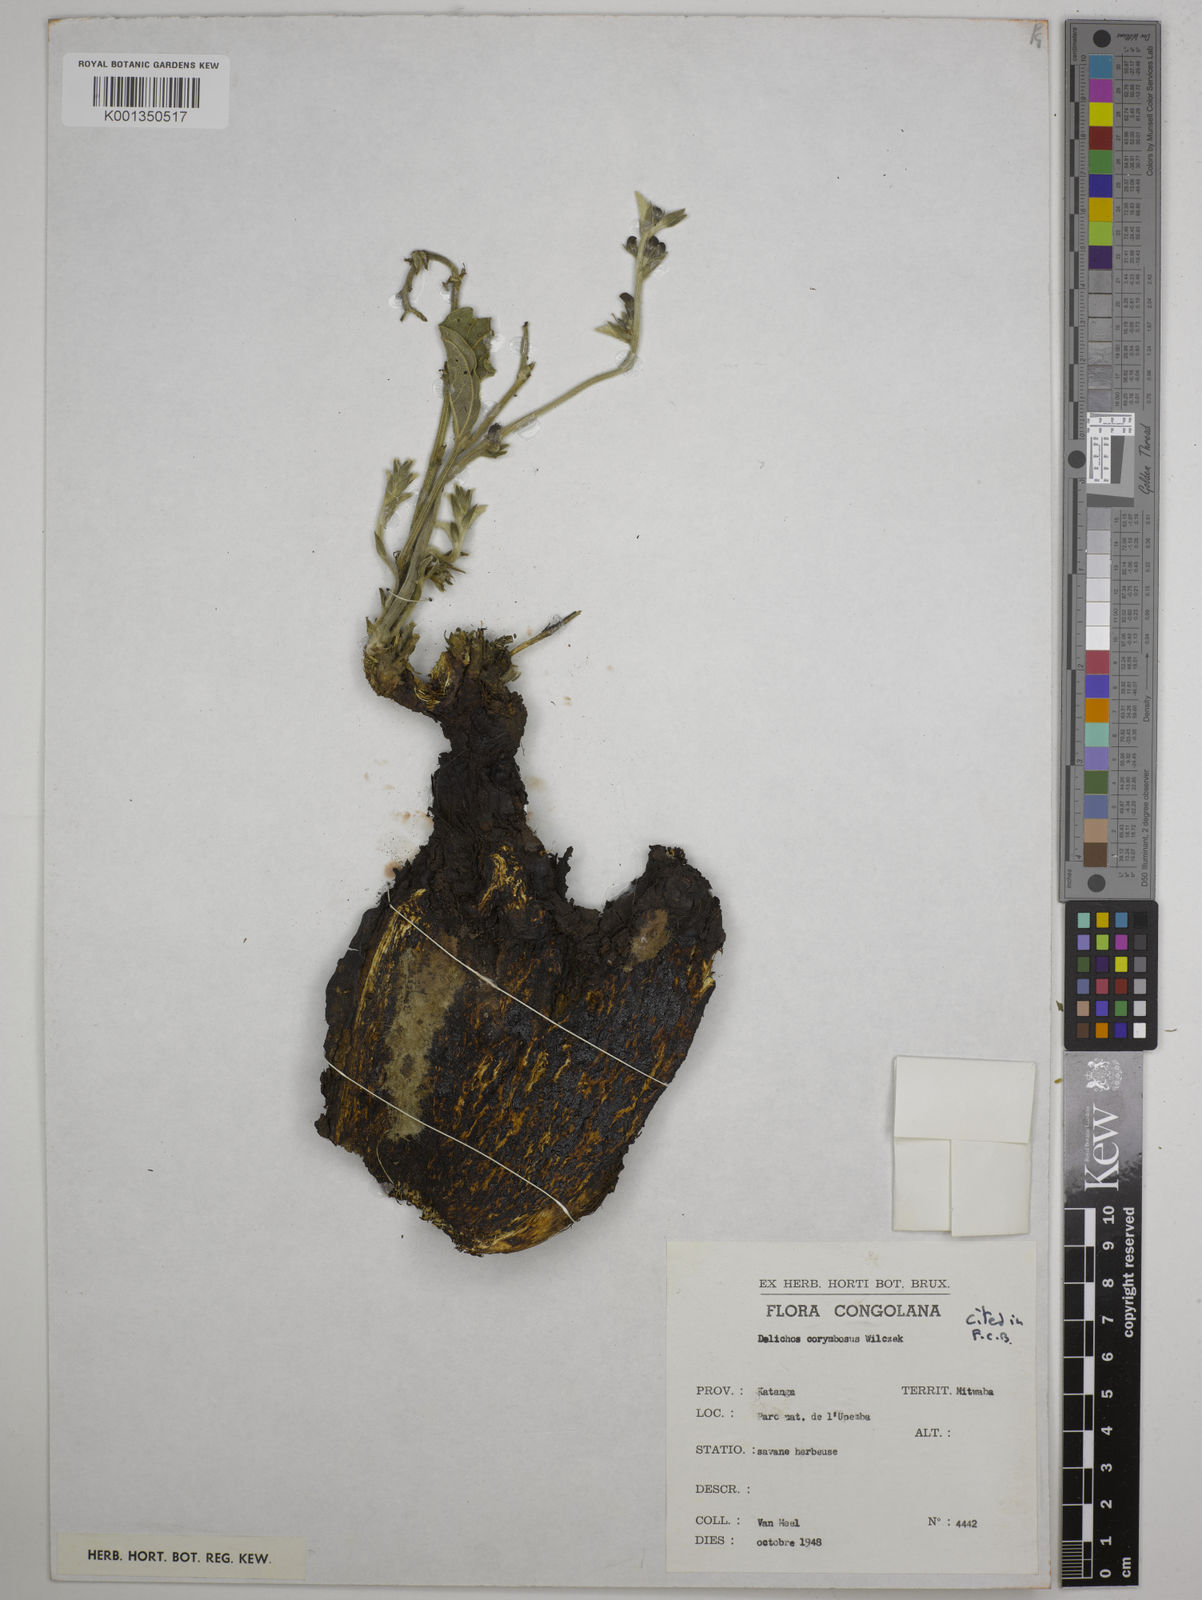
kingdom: Plantae
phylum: Tracheophyta
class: Magnoliopsida
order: Fabales
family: Fabaceae
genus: Dolichos
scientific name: Dolichos corymbosus
